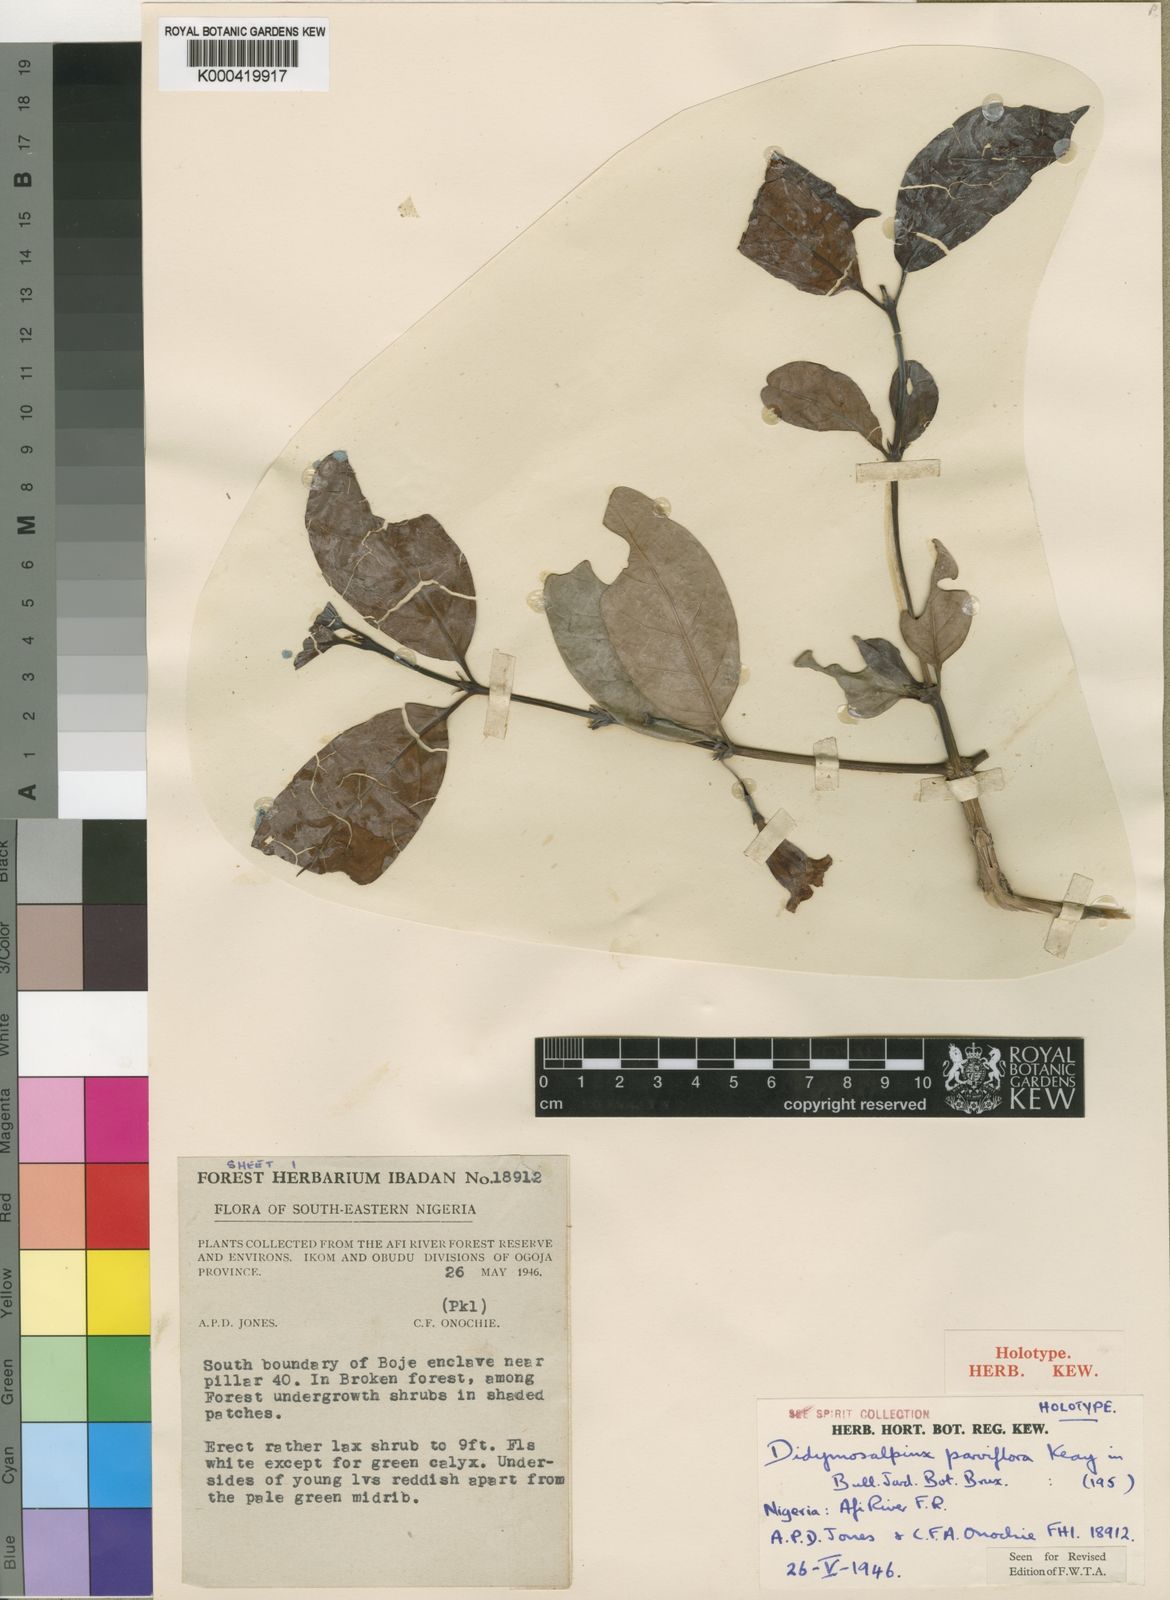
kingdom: Plantae
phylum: Tracheophyta
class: Magnoliopsida
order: Gentianales
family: Rubiaceae
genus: Petitiocodon
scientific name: Petitiocodon parviflorum
